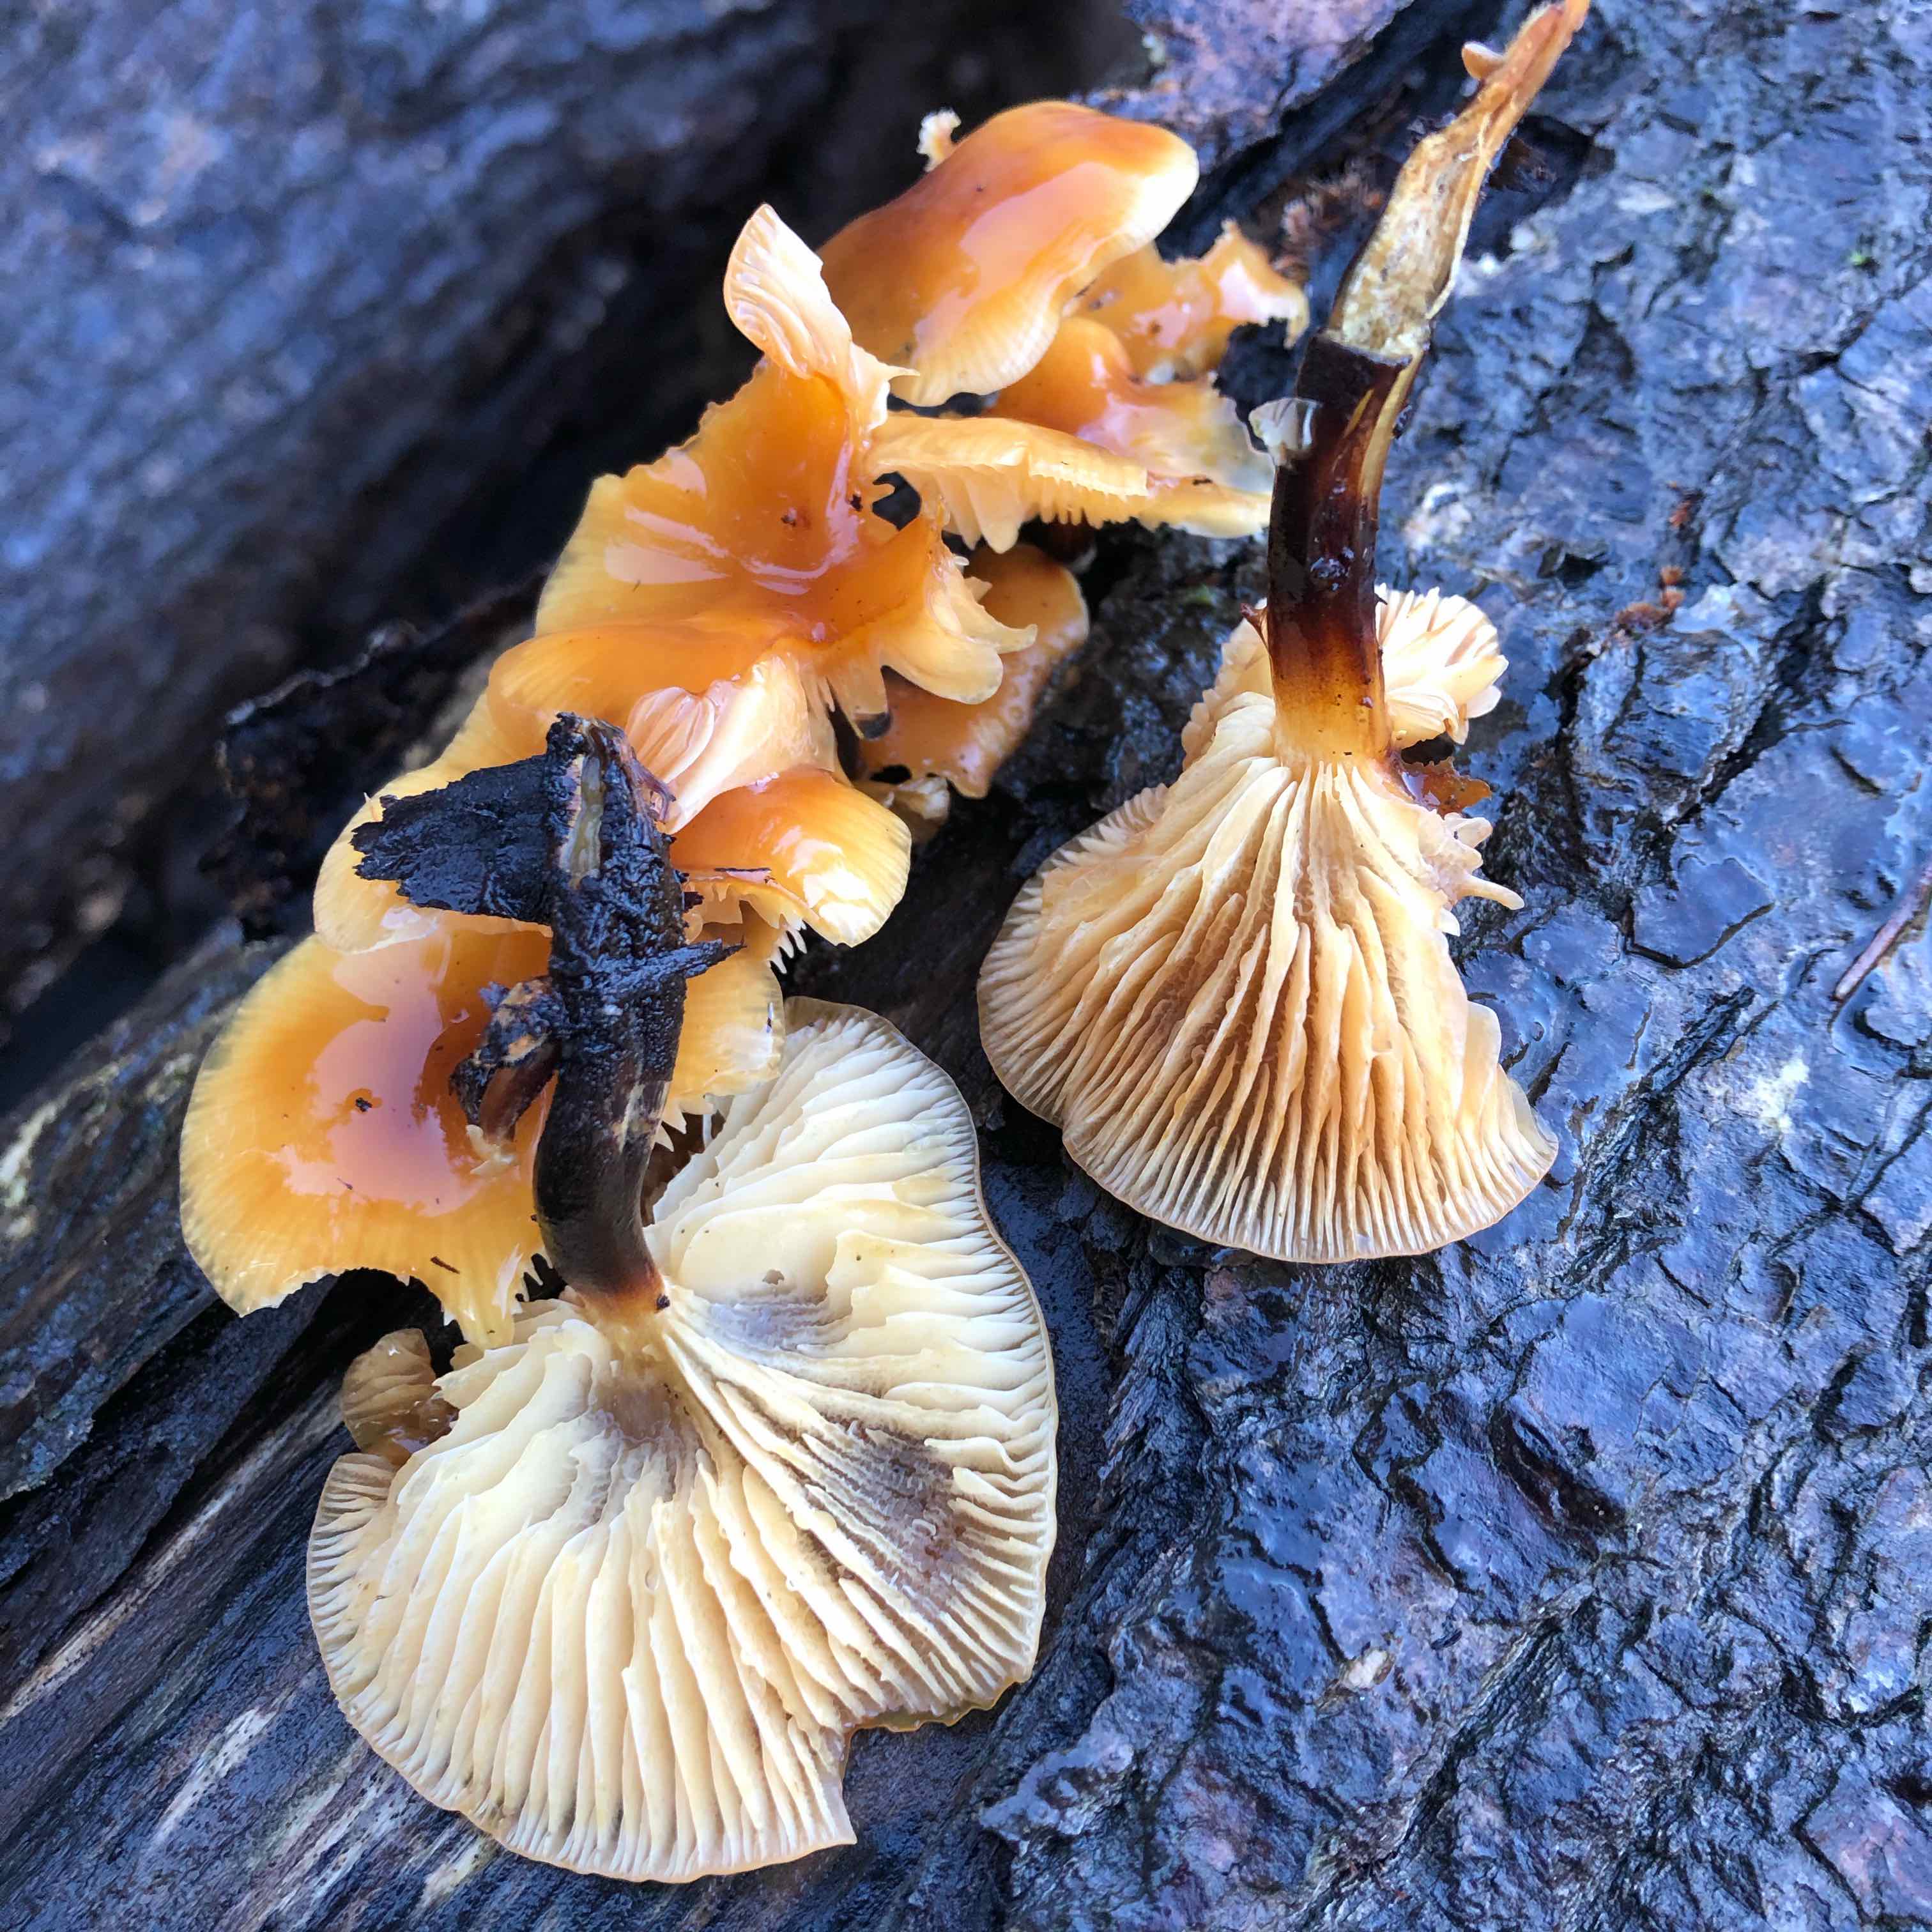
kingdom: Fungi
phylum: Basidiomycota
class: Agaricomycetes
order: Agaricales
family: Physalacriaceae
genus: Flammulina
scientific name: Flammulina velutipes
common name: gul fløjlsfod
